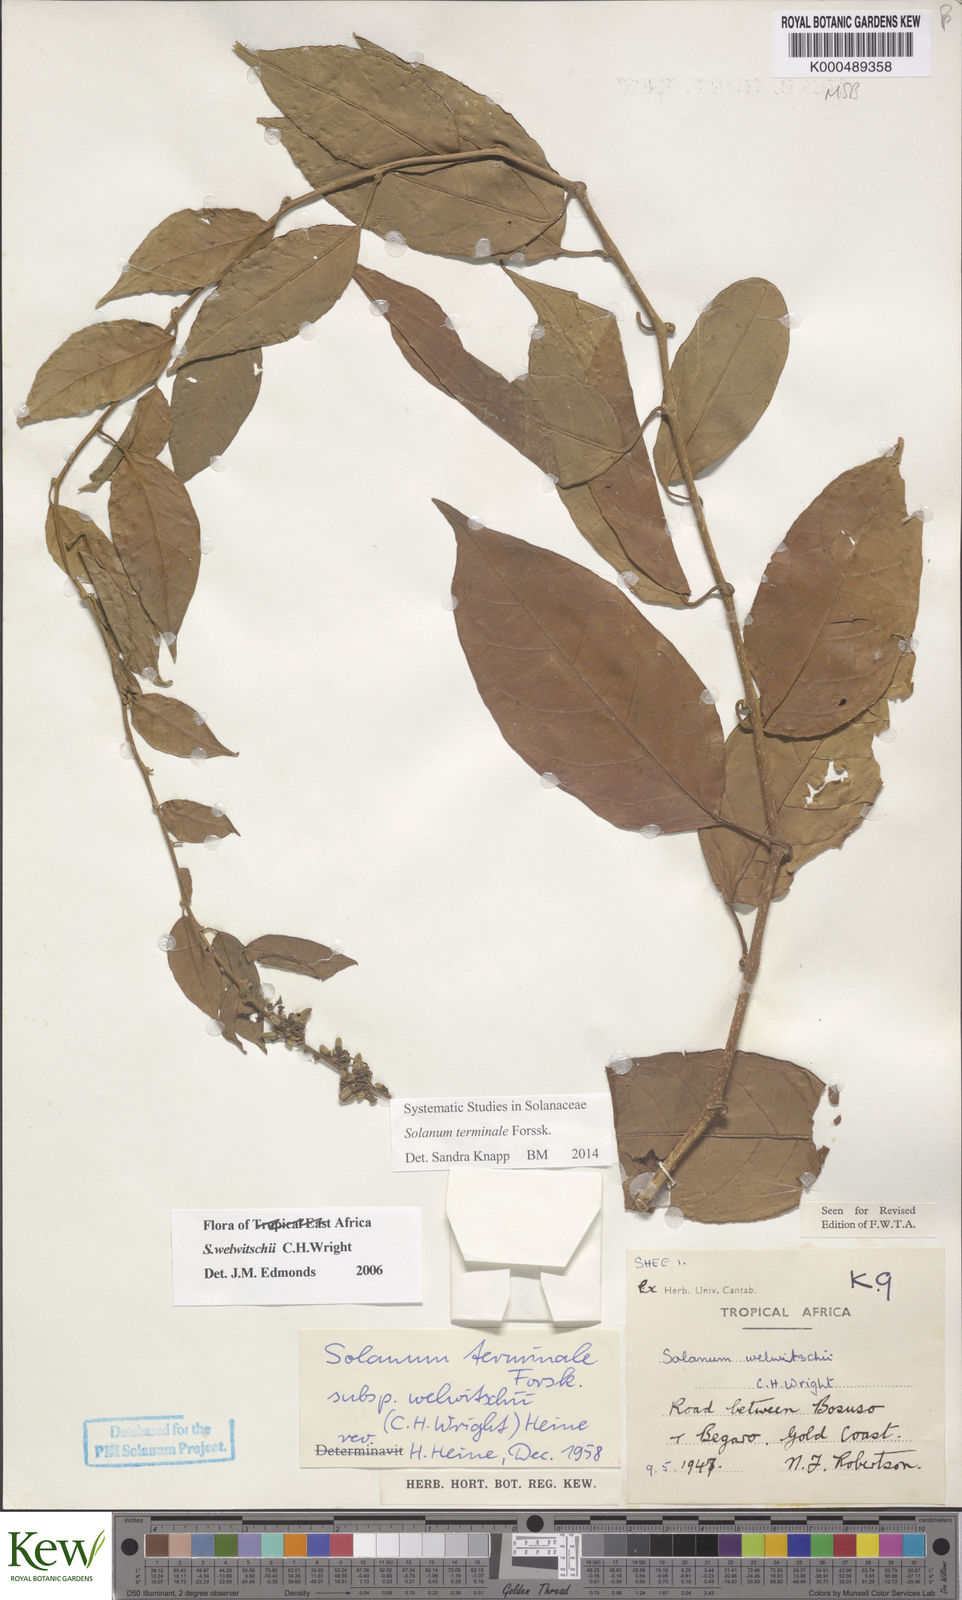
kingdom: Plantae
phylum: Tracheophyta
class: Magnoliopsida
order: Solanales
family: Solanaceae
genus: Solanum
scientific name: Solanum terminale
